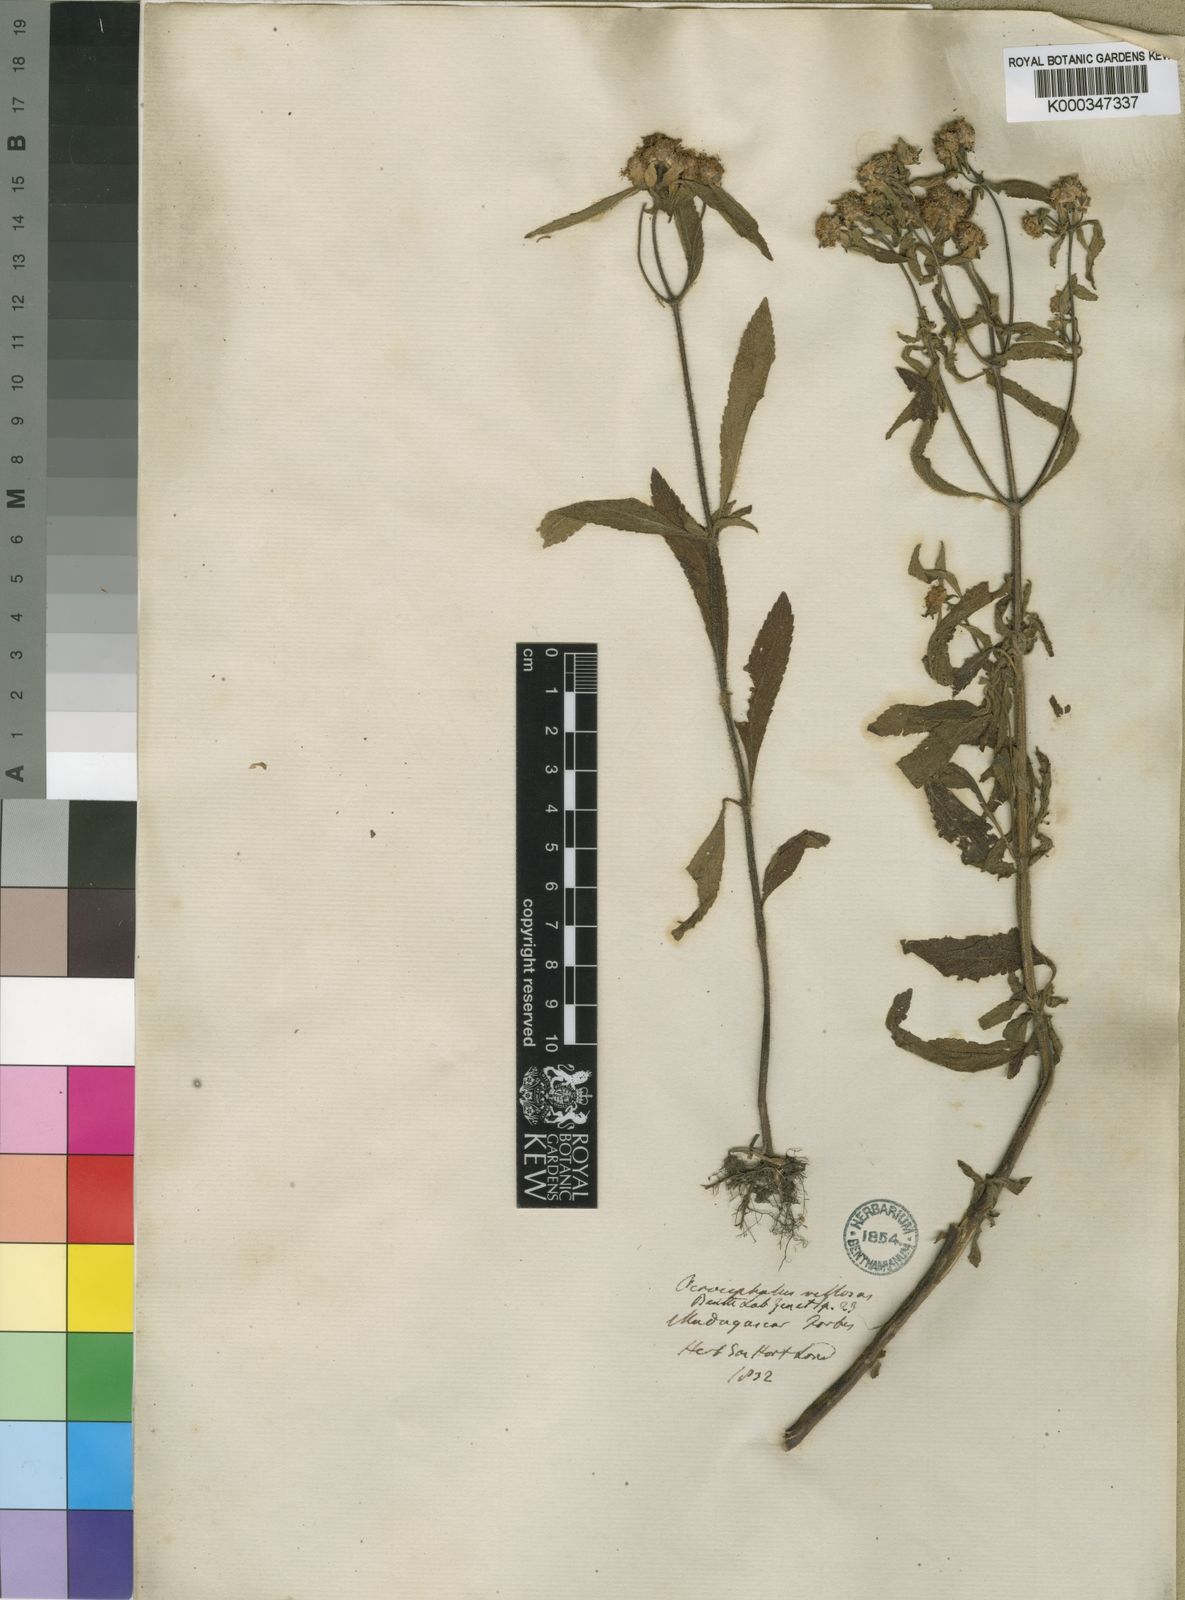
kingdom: Plantae
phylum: Tracheophyta
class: Magnoliopsida
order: Lamiales
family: Lamiaceae
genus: Haumaniastrum
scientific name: Haumaniastrum villosum
